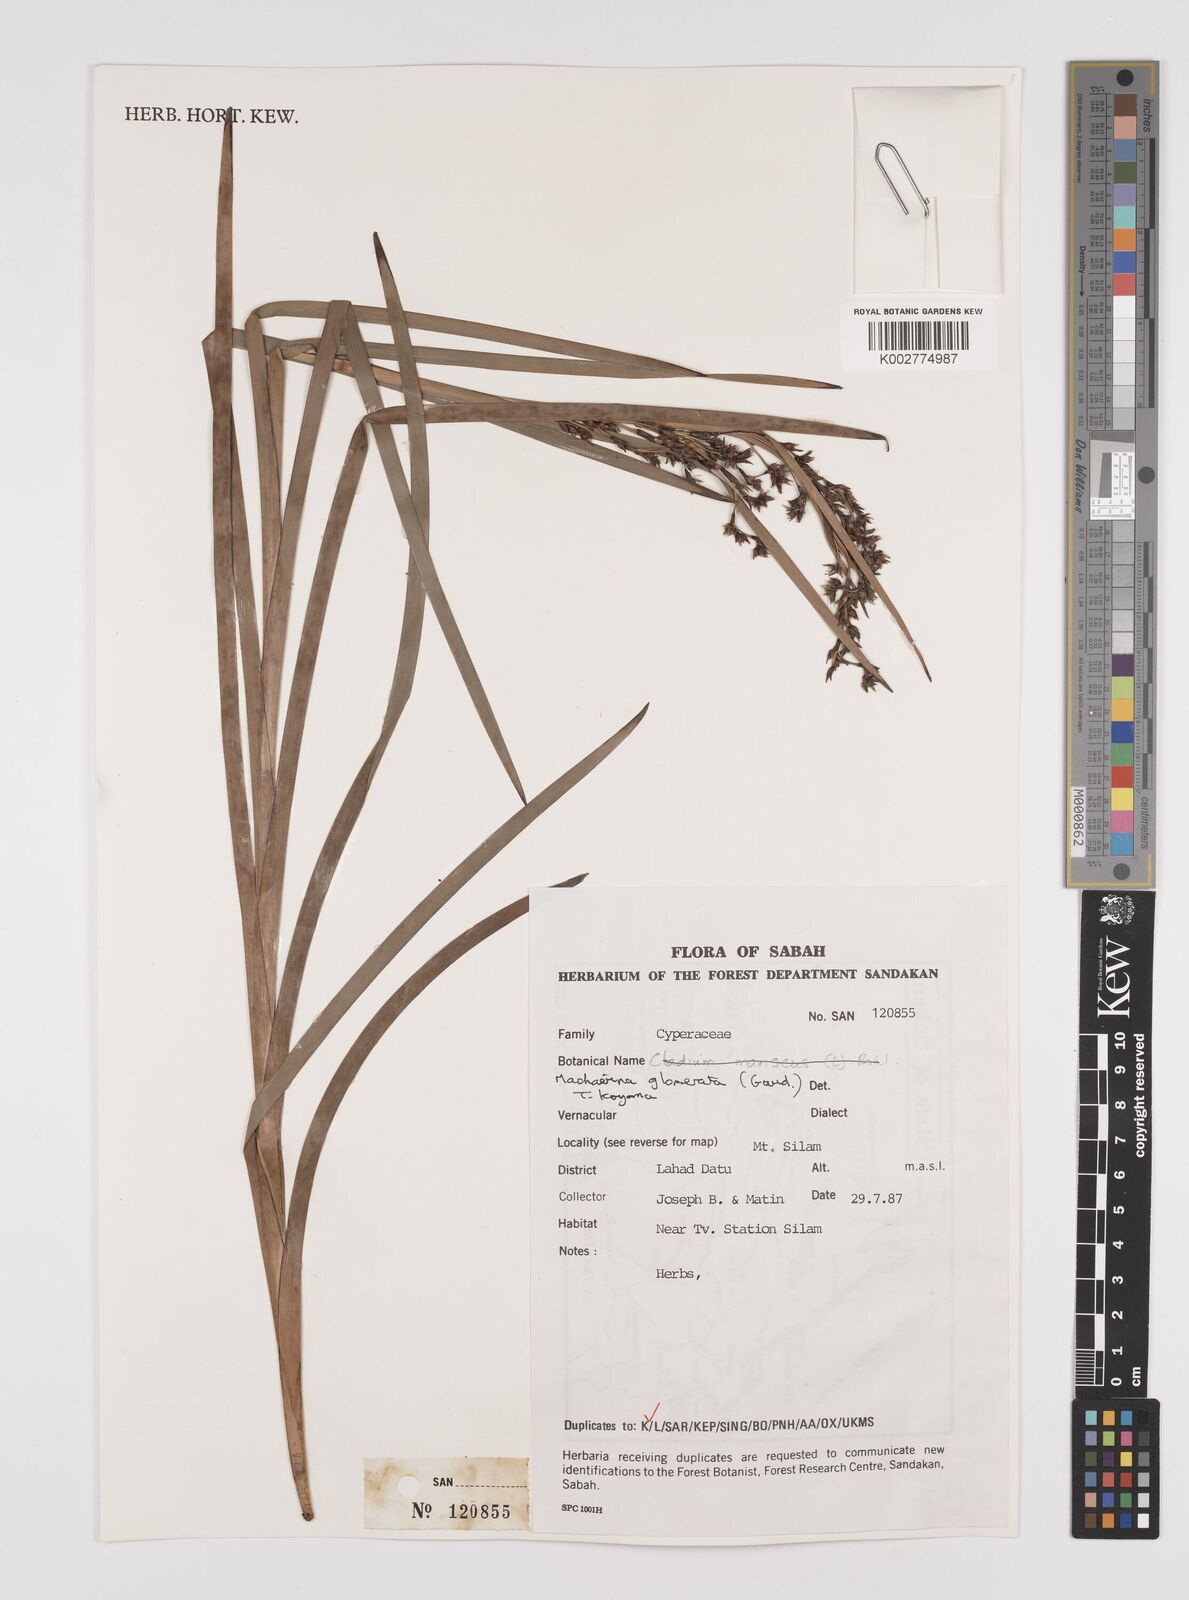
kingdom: Plantae
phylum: Tracheophyta
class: Liliopsida
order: Poales
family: Cyperaceae
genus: Machaerina
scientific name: Machaerina glomerata
